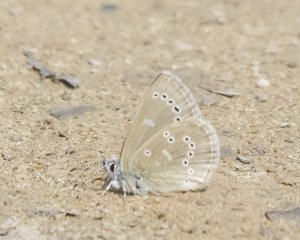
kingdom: Animalia
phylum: Arthropoda
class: Insecta
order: Lepidoptera
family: Lycaenidae
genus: Glaucopsyche
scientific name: Glaucopsyche lygdamus
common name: Silvery Blue
